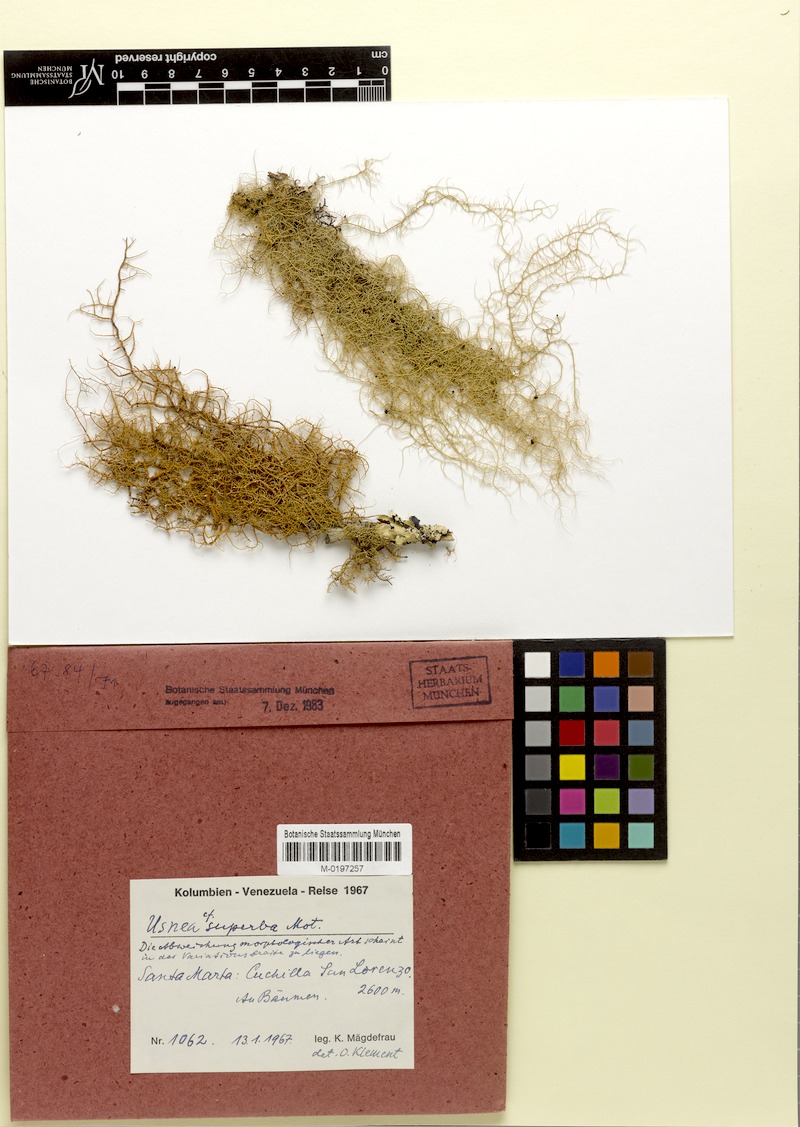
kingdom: Fungi
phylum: Ascomycota
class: Lecanoromycetes
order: Lecanorales
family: Parmeliaceae
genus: Usnea
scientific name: Usnea
